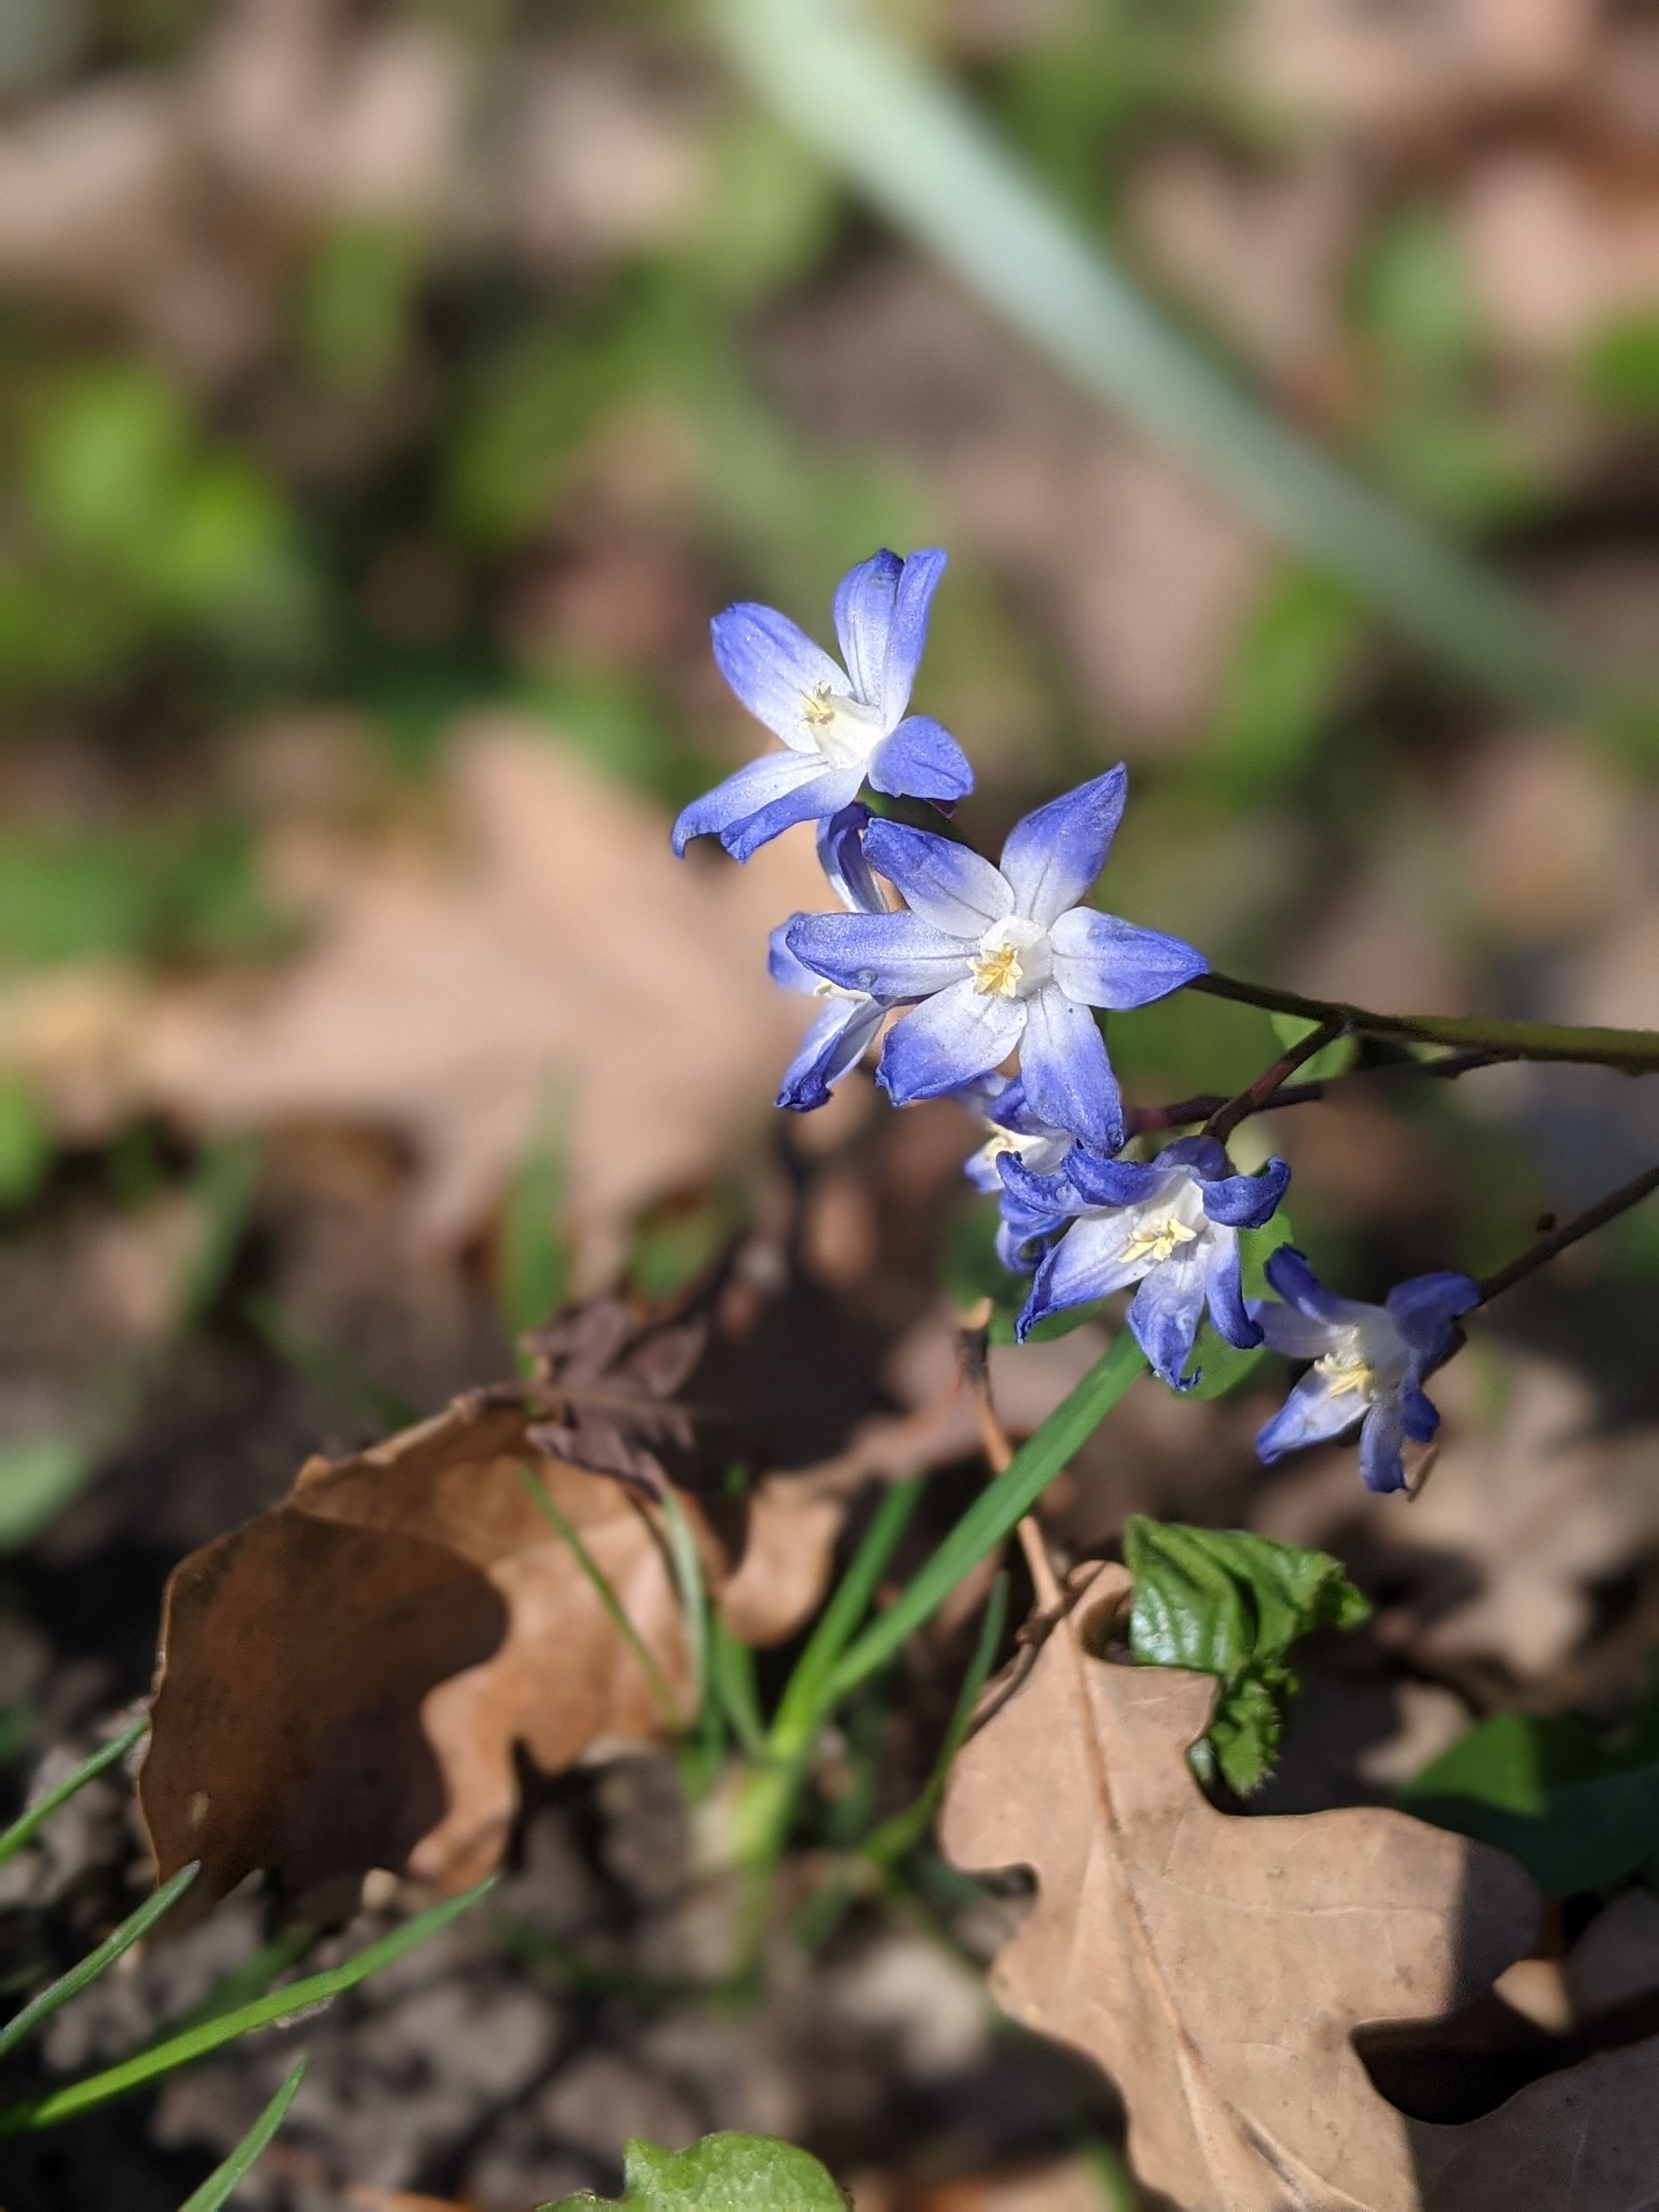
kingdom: Plantae
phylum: Tracheophyta
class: Liliopsida
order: Asparagales
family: Asparagaceae
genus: Scilla
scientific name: Scilla forbesii
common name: Almindelig snepryd
